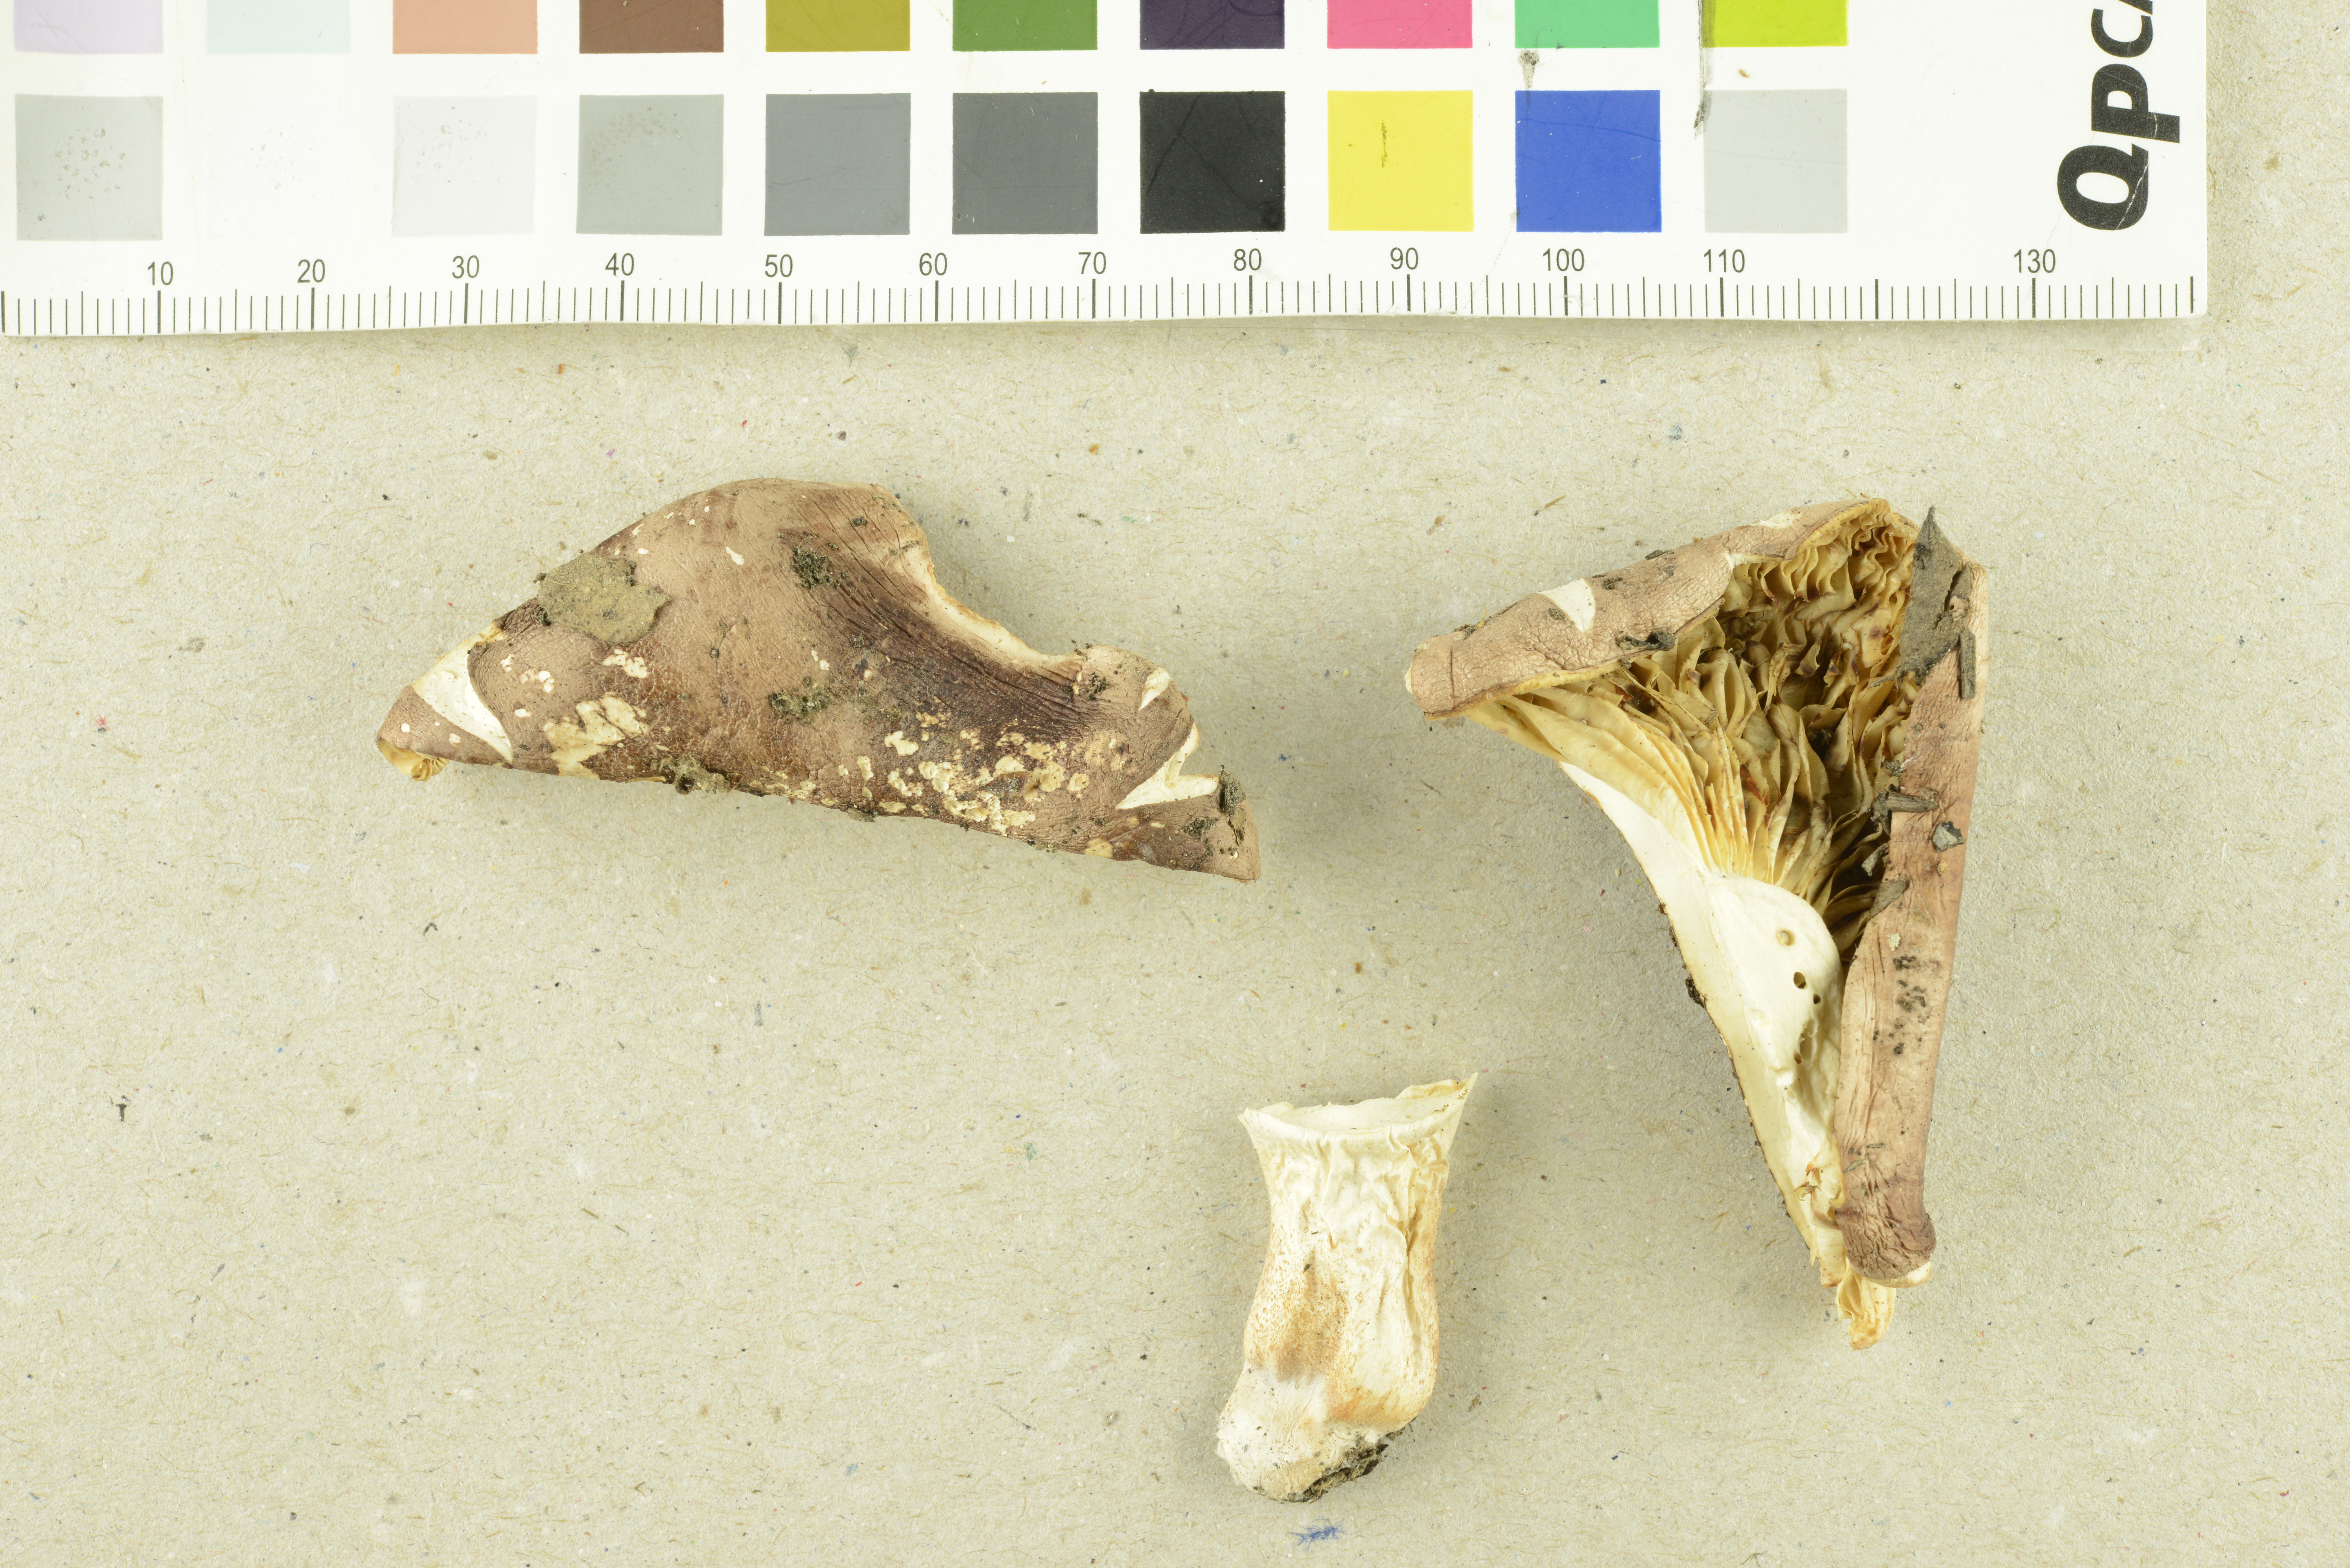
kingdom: Fungi
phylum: Basidiomycota
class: Agaricomycetes
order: Agaricales
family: Tricholomataceae
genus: Tricholoma
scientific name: Tricholoma stans
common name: Upright knight
